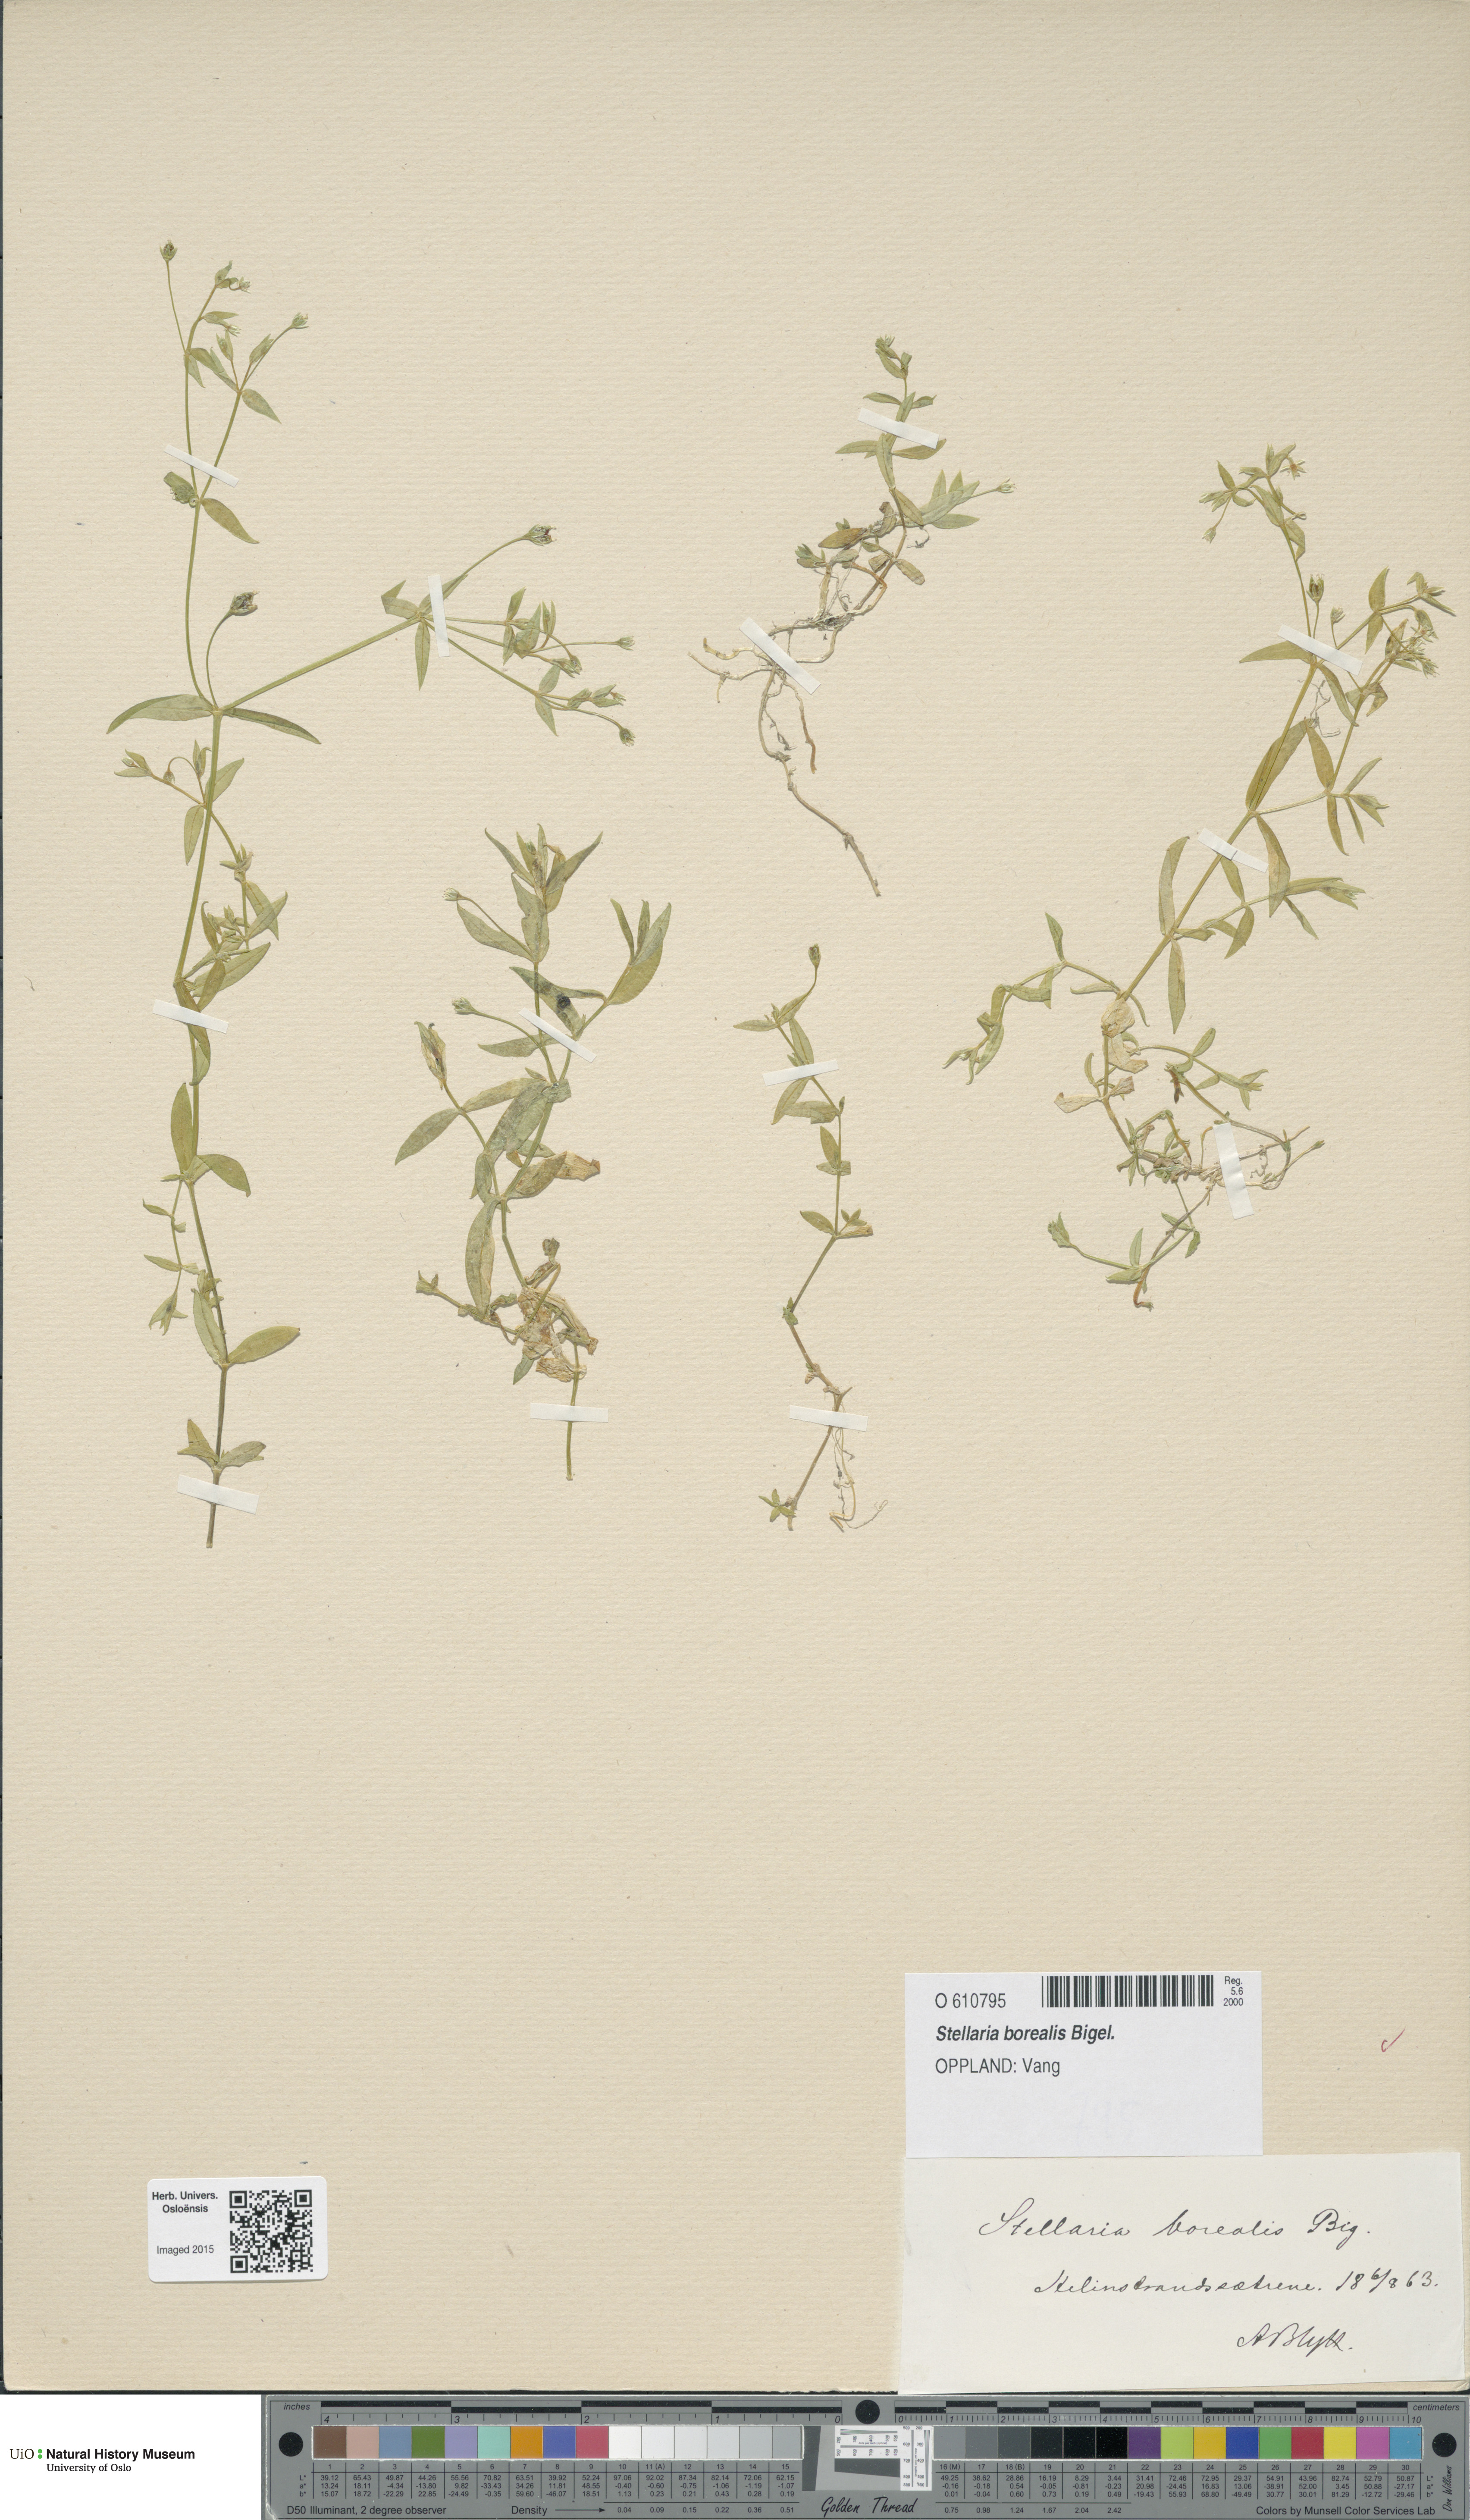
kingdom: Plantae
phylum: Tracheophyta
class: Magnoliopsida
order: Caryophyllales
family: Caryophyllaceae
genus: Stellaria
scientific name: Stellaria borealis
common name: Boreal starwort
